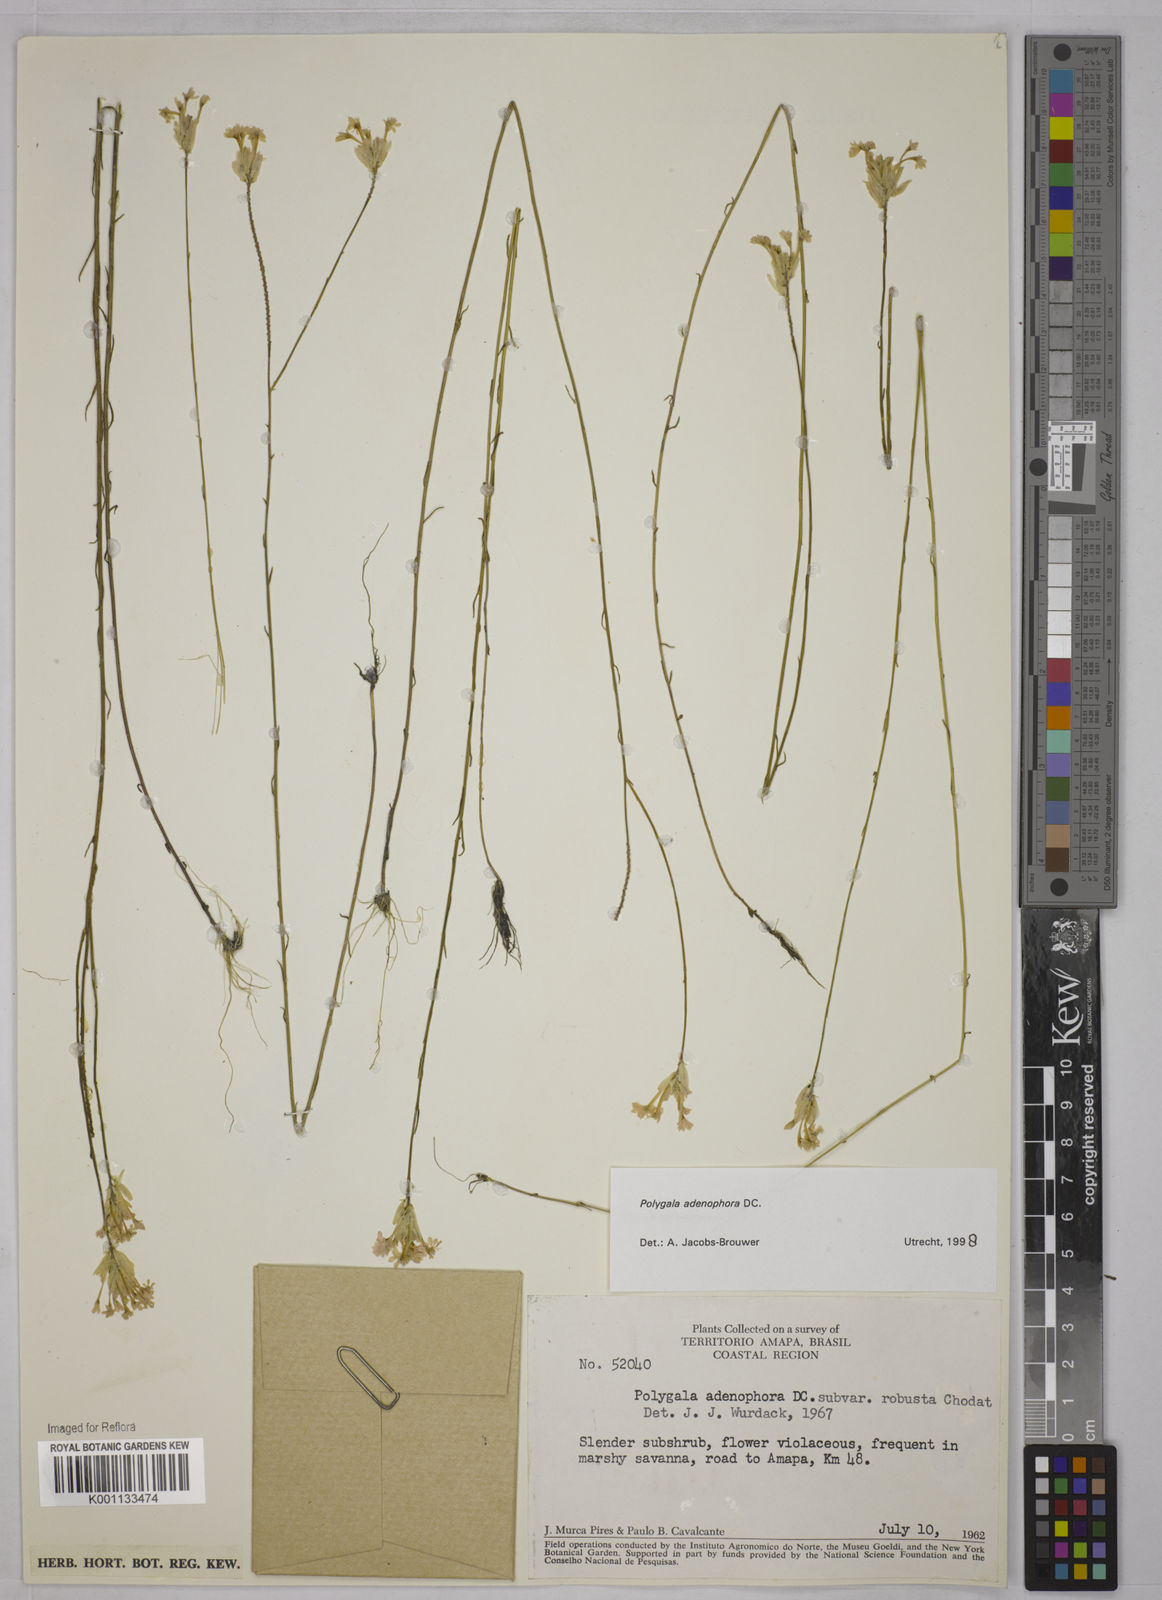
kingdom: Plantae
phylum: Tracheophyta
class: Magnoliopsida
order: Fabales
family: Polygalaceae
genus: Polygala
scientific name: Polygala adenophora
